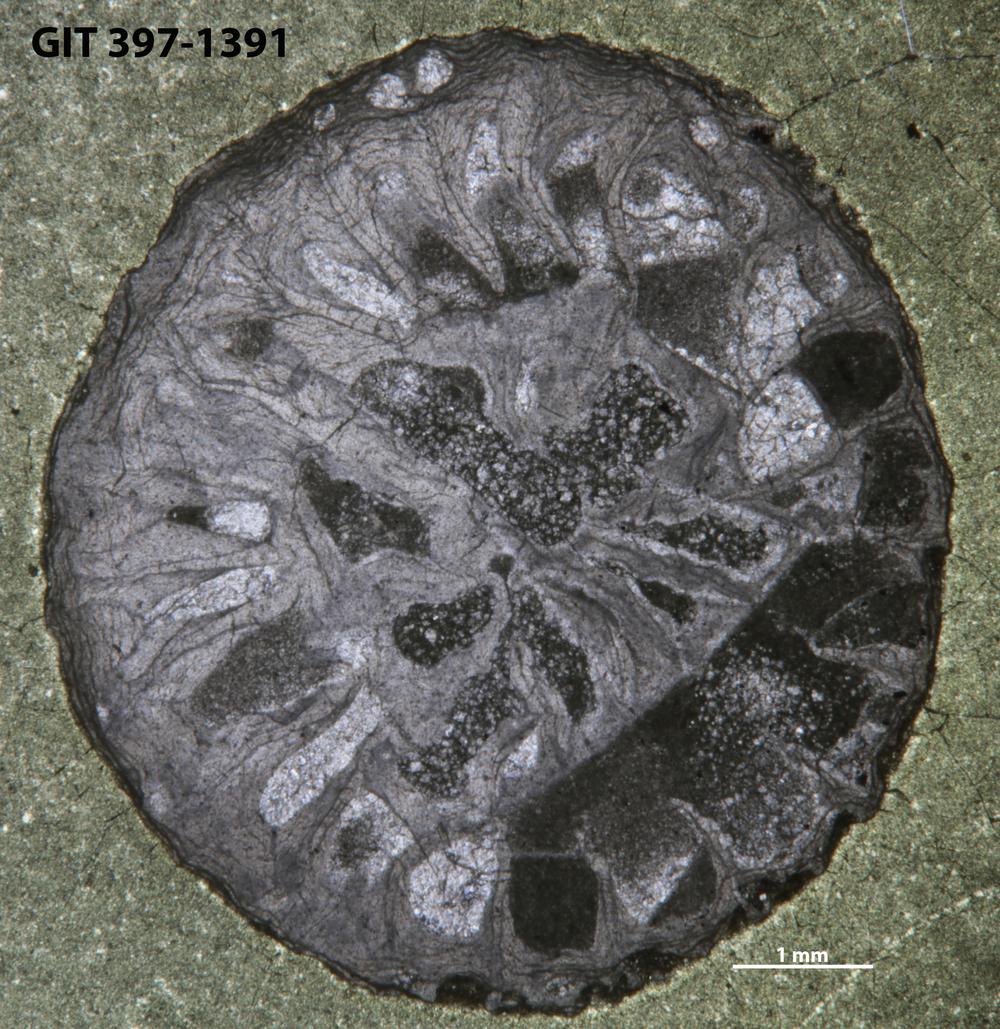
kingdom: Animalia
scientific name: Animalia
